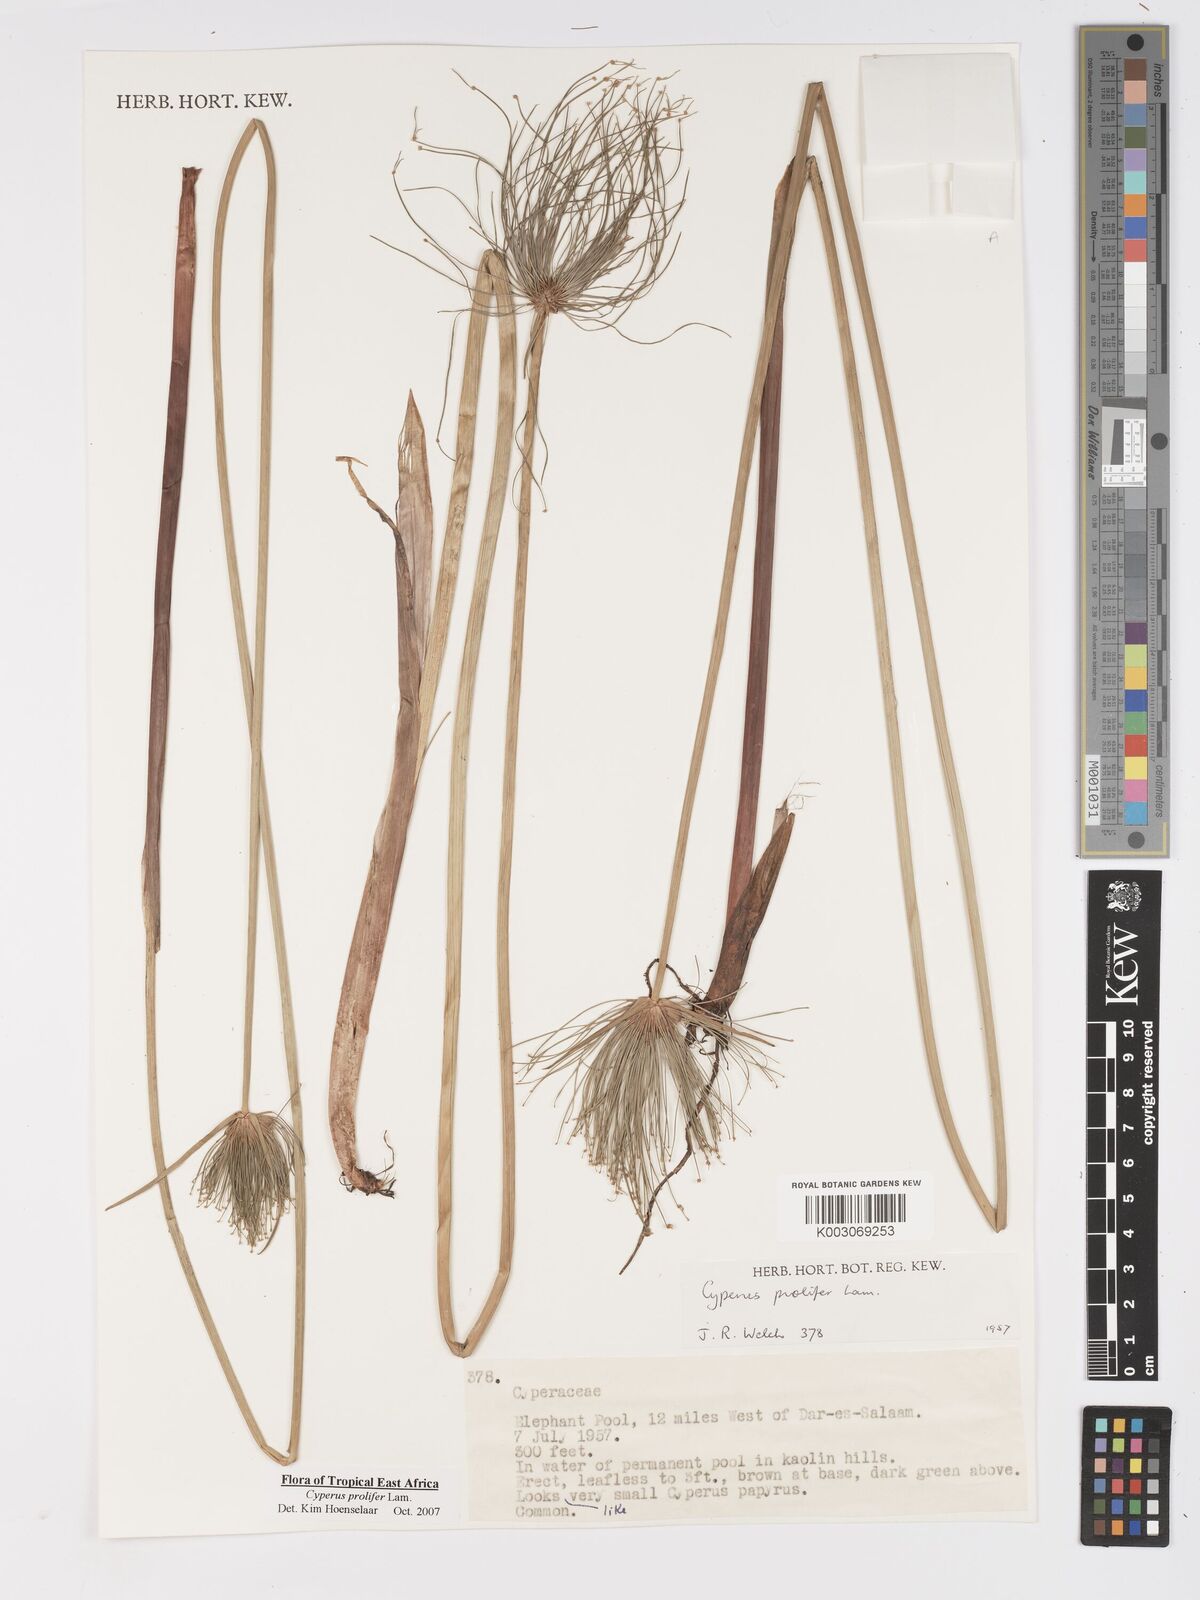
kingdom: Plantae
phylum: Tracheophyta
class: Liliopsida
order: Poales
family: Cyperaceae
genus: Cyperus
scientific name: Cyperus prolifer
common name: Miniature flatsedge
